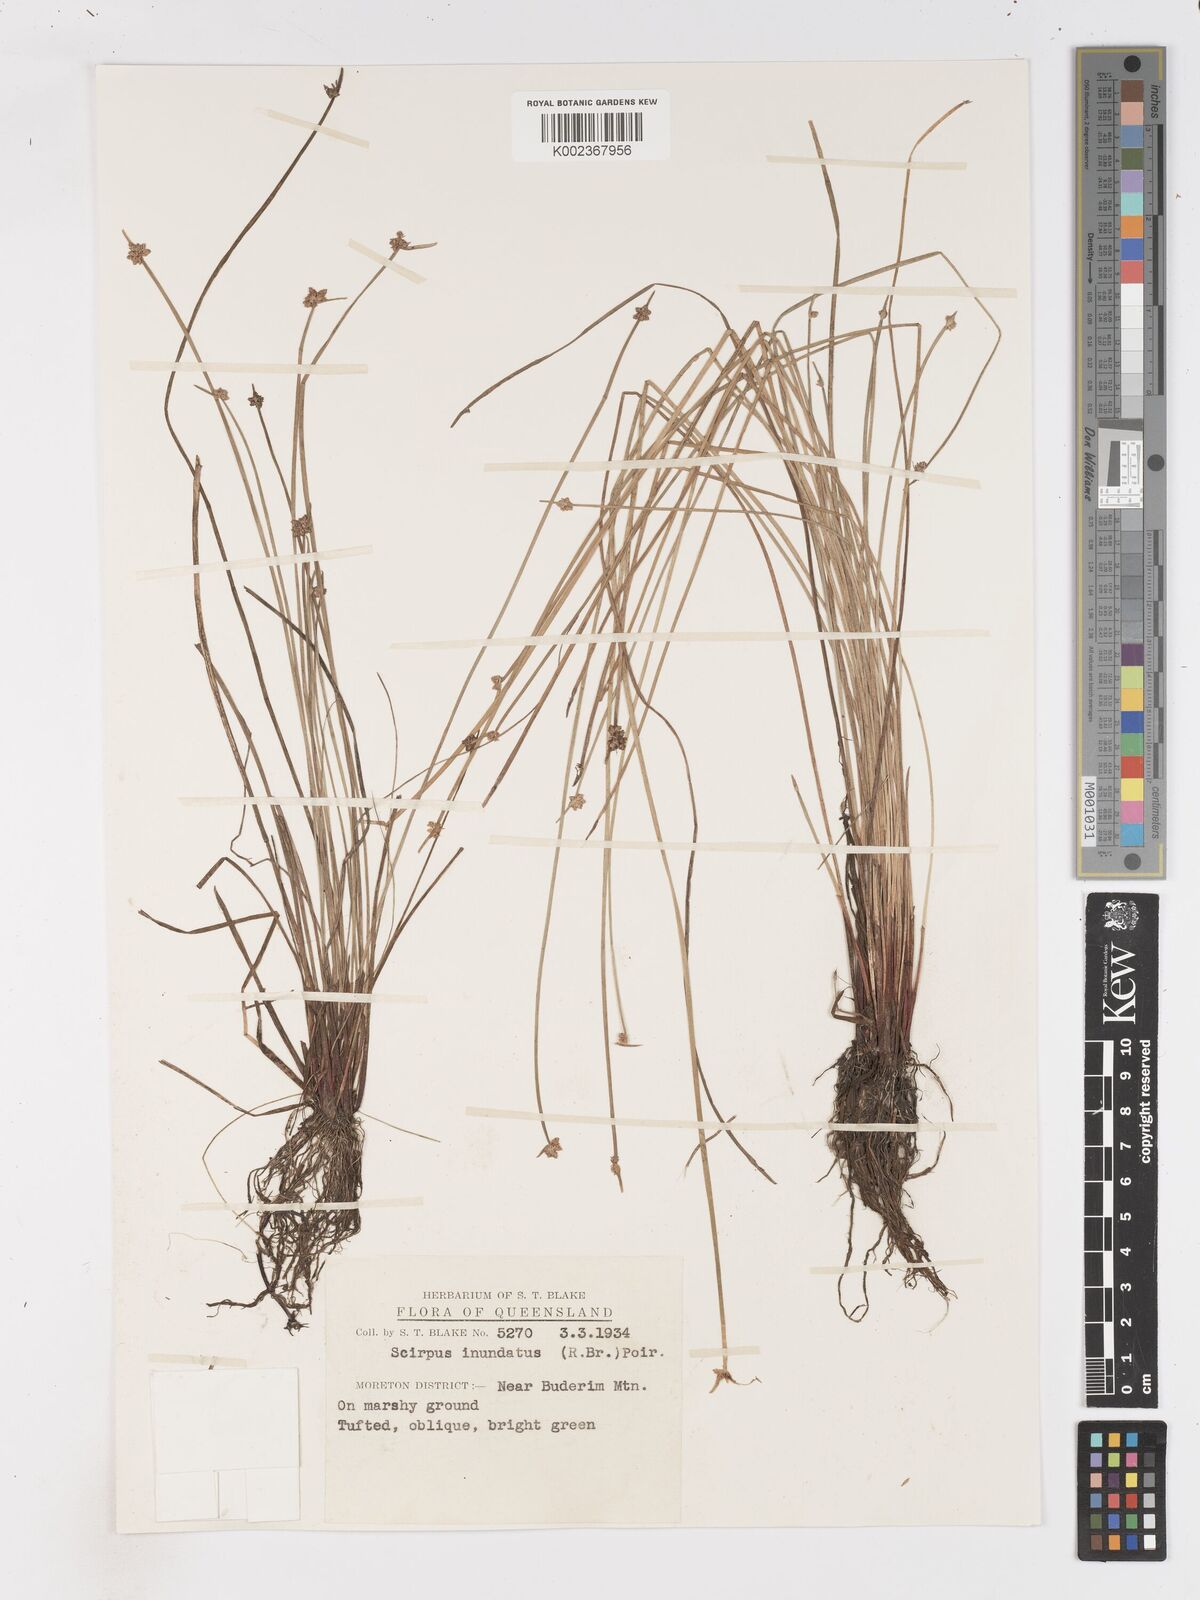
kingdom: Plantae
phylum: Tracheophyta
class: Liliopsida
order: Poales
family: Cyperaceae
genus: Isolepis
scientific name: Isolepis inundata
